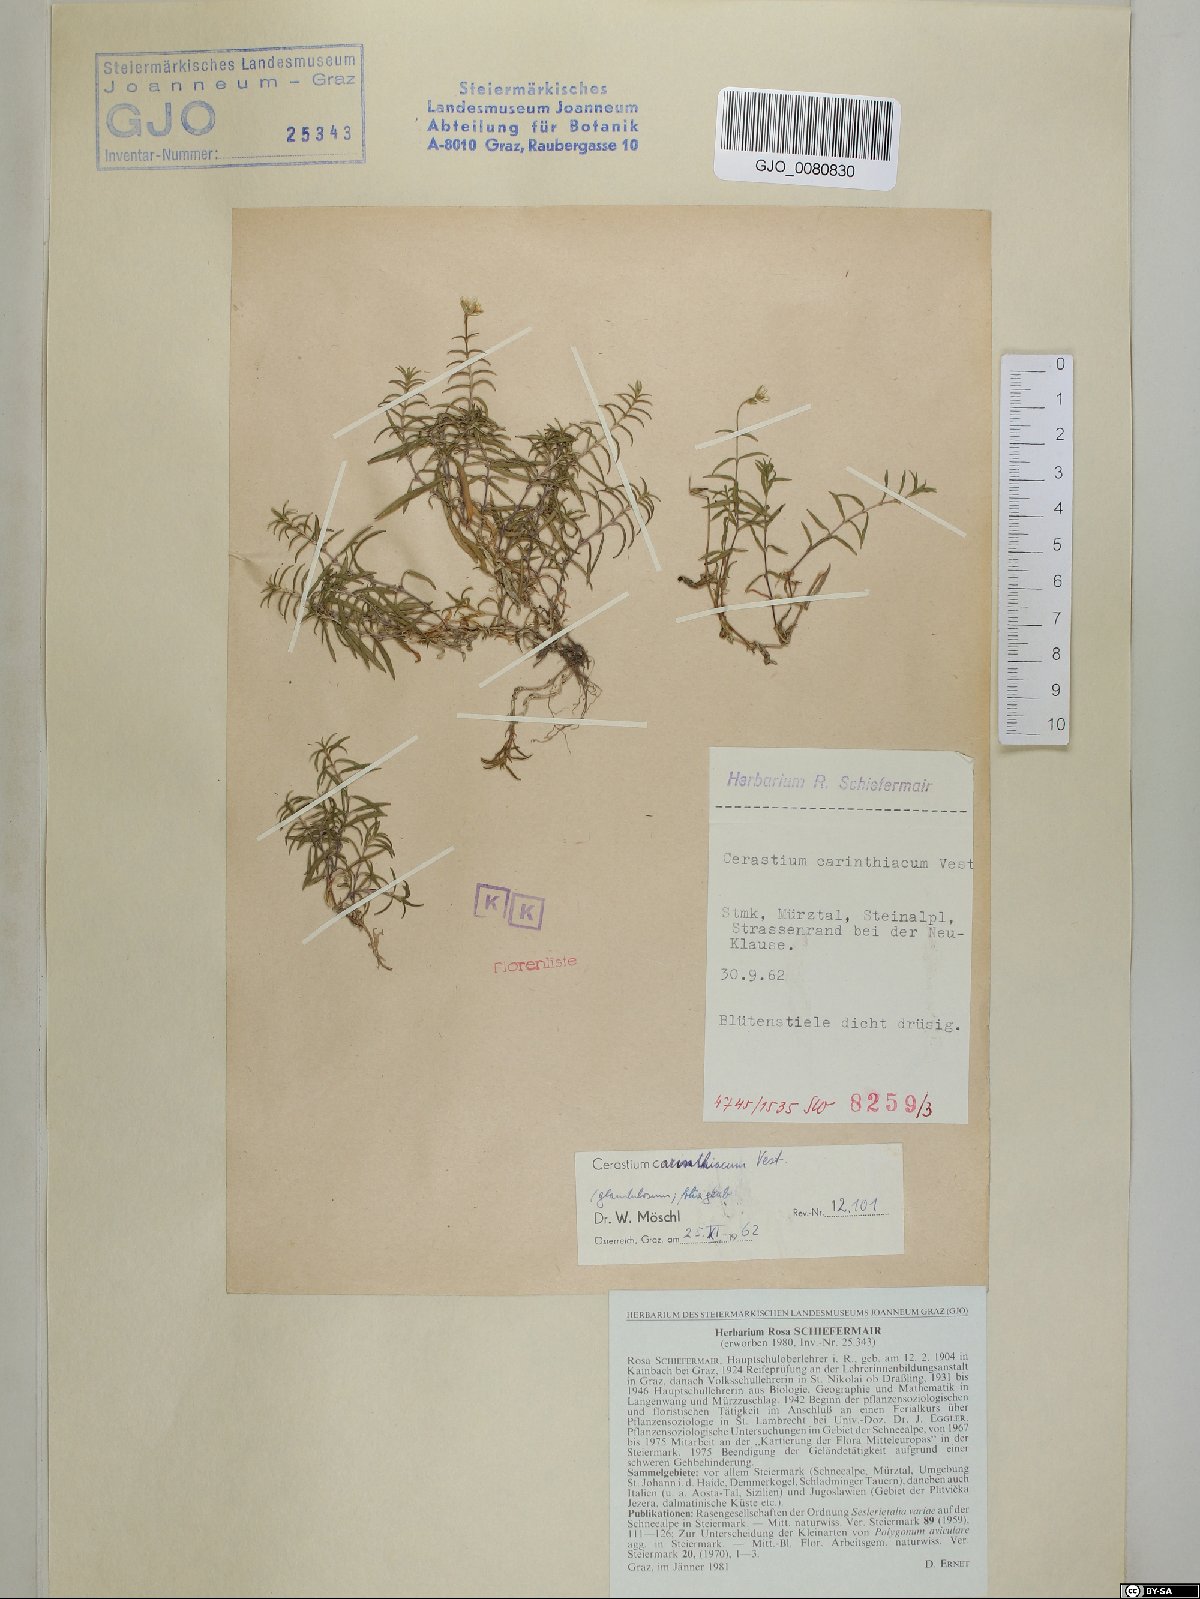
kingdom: Plantae
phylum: Tracheophyta
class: Magnoliopsida
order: Caryophyllales
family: Caryophyllaceae
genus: Cerastium
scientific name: Cerastium carinthiacum
